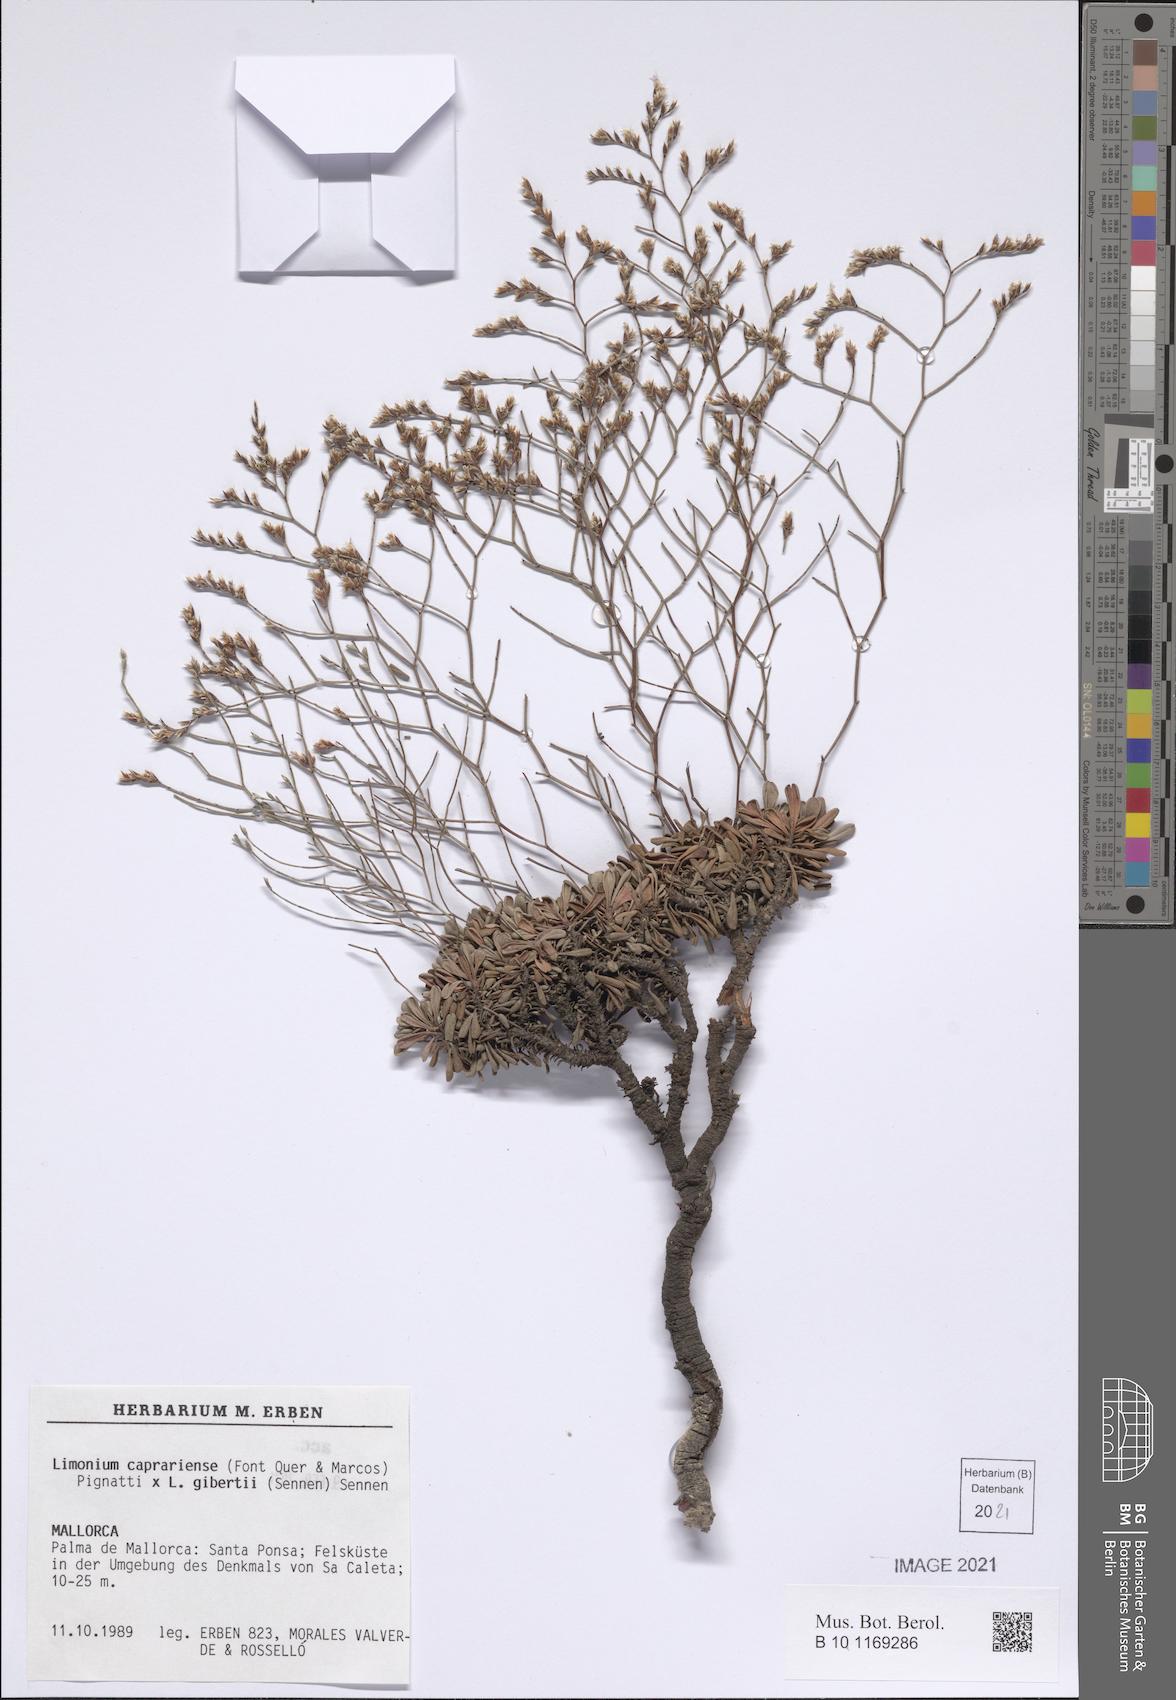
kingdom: Plantae
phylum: Tracheophyta
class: Magnoliopsida
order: Caryophyllales
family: Plumbaginaceae
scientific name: Plumbaginaceae
